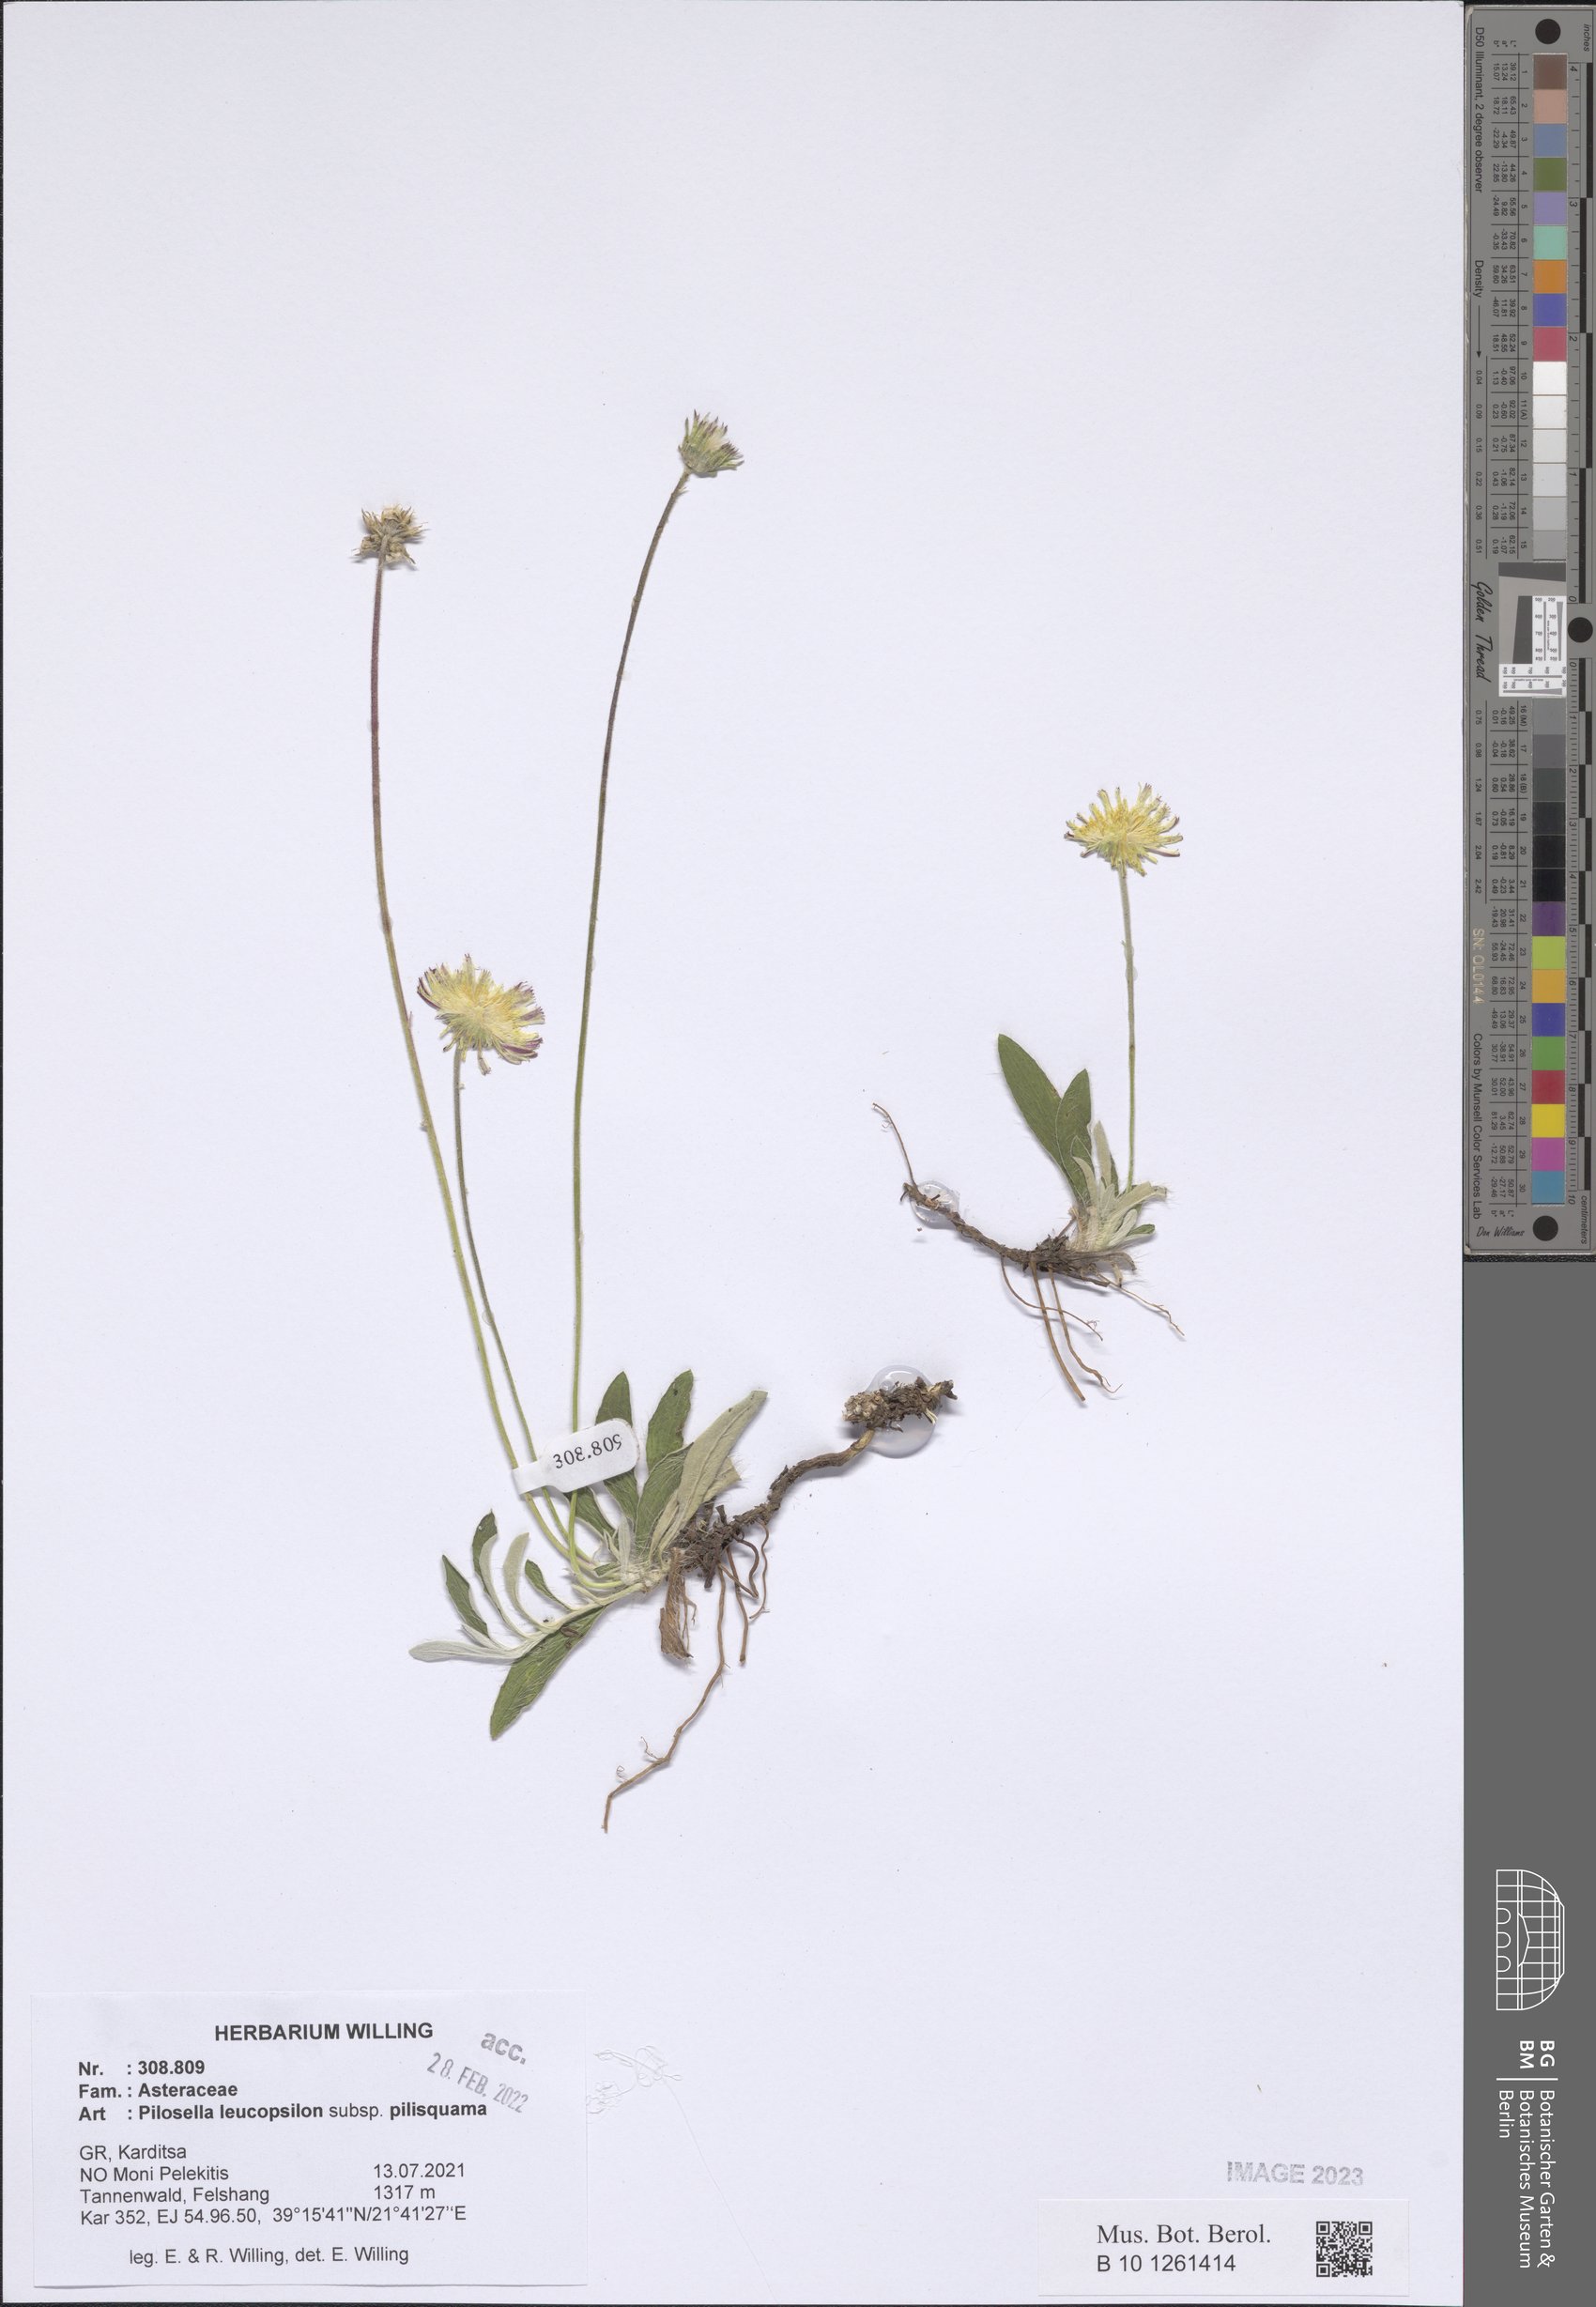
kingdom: Plantae
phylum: Tracheophyta
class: Magnoliopsida
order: Asterales
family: Asteraceae
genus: Pilosella
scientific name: Pilosella leucopsilon
